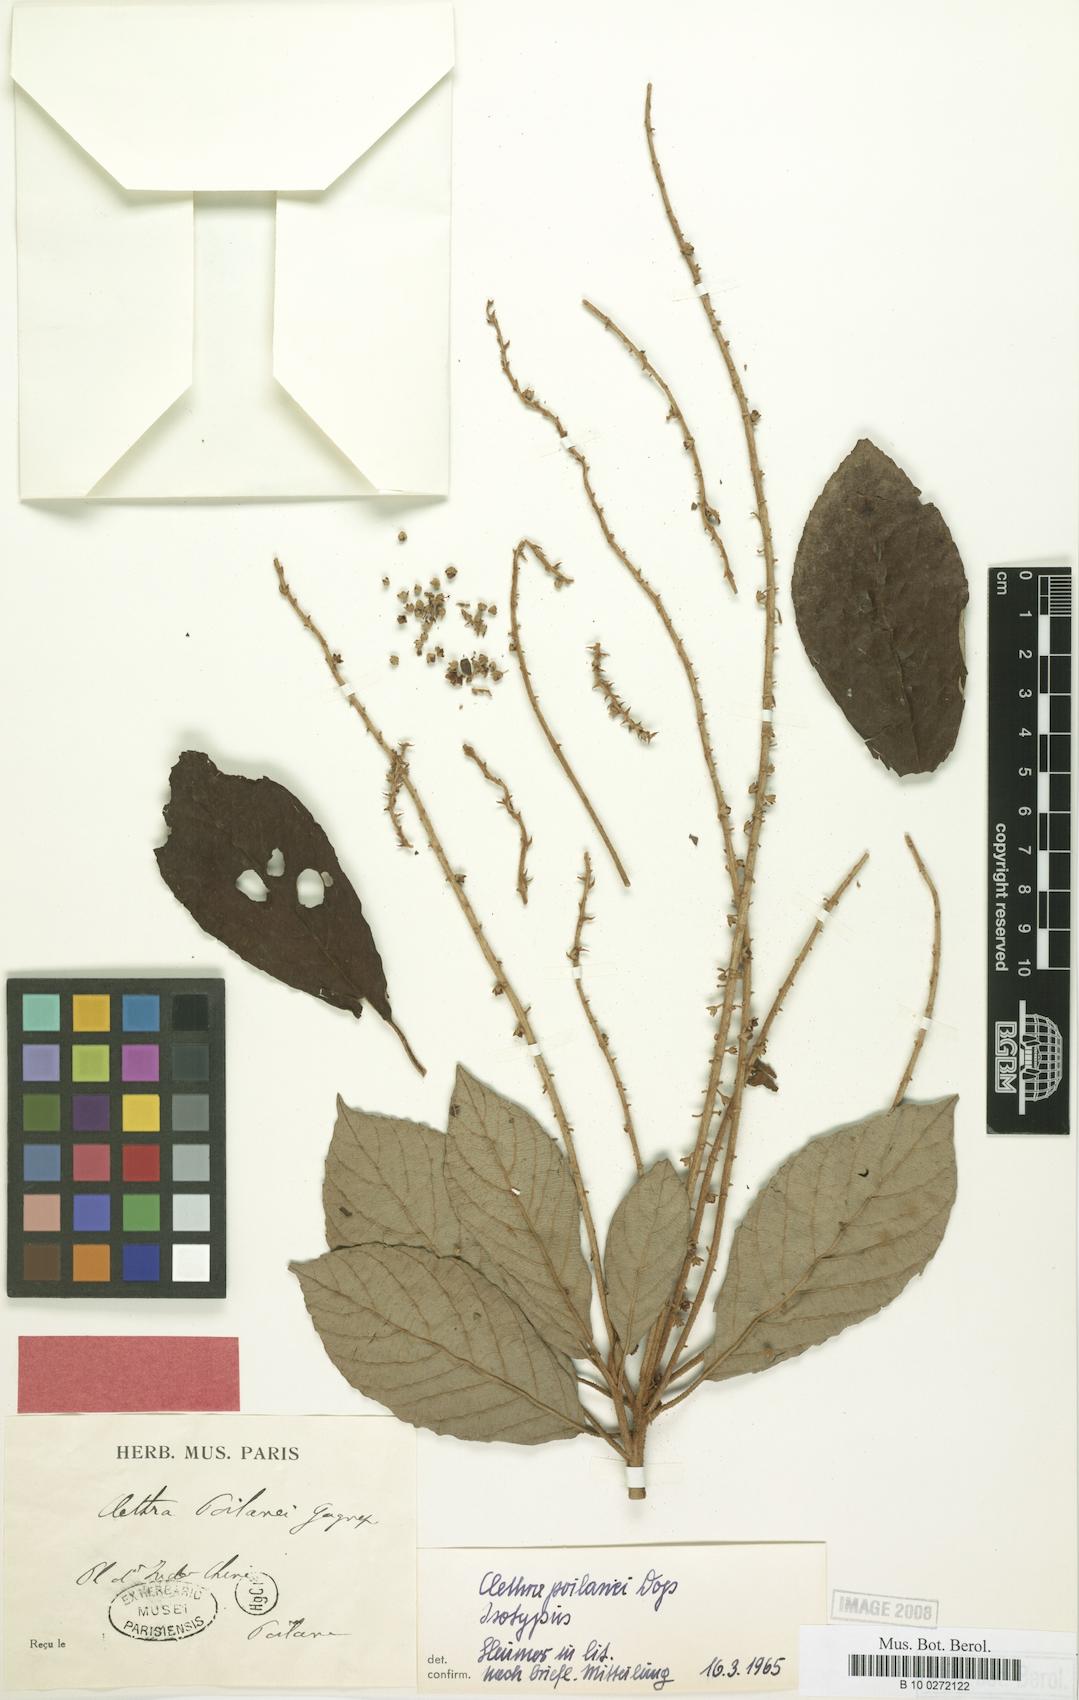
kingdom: Plantae
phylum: Tracheophyta
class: Magnoliopsida
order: Ericales
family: Clethraceae
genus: Clethra
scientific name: Clethra poilanei
